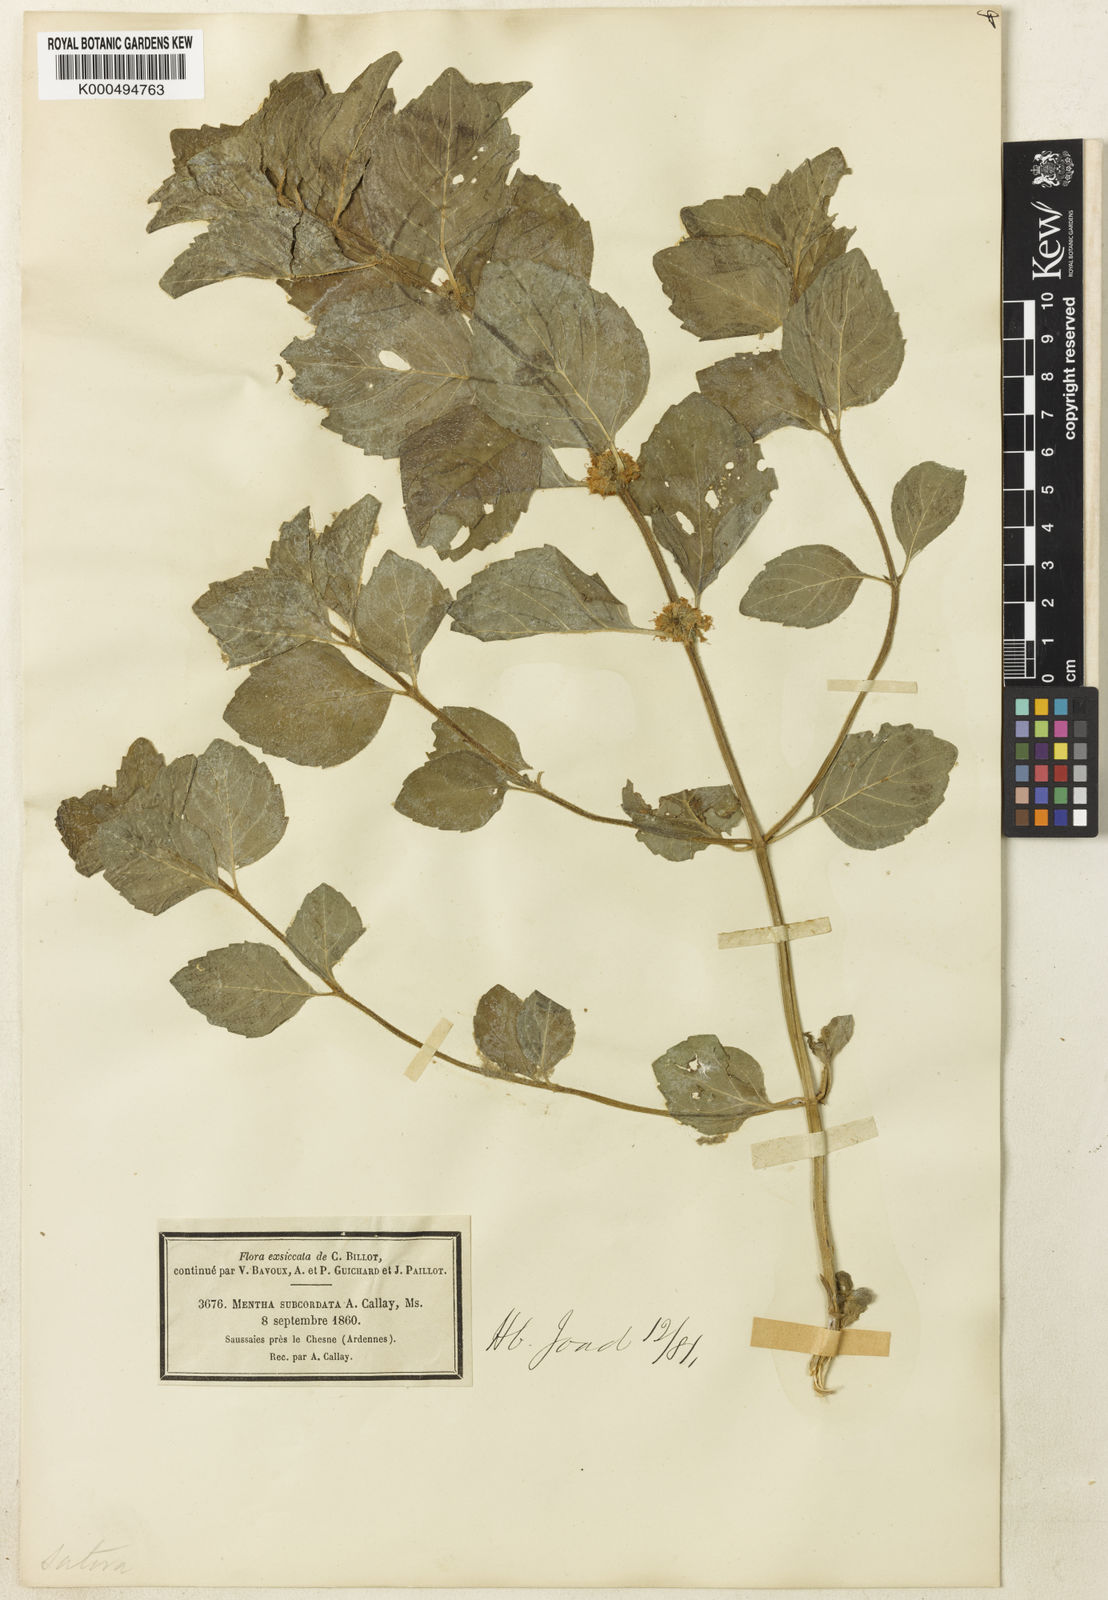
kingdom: Plantae
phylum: Tracheophyta
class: Magnoliopsida
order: Lamiales
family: Lamiaceae
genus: Mentha
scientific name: Mentha arvensis
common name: Corn mint
